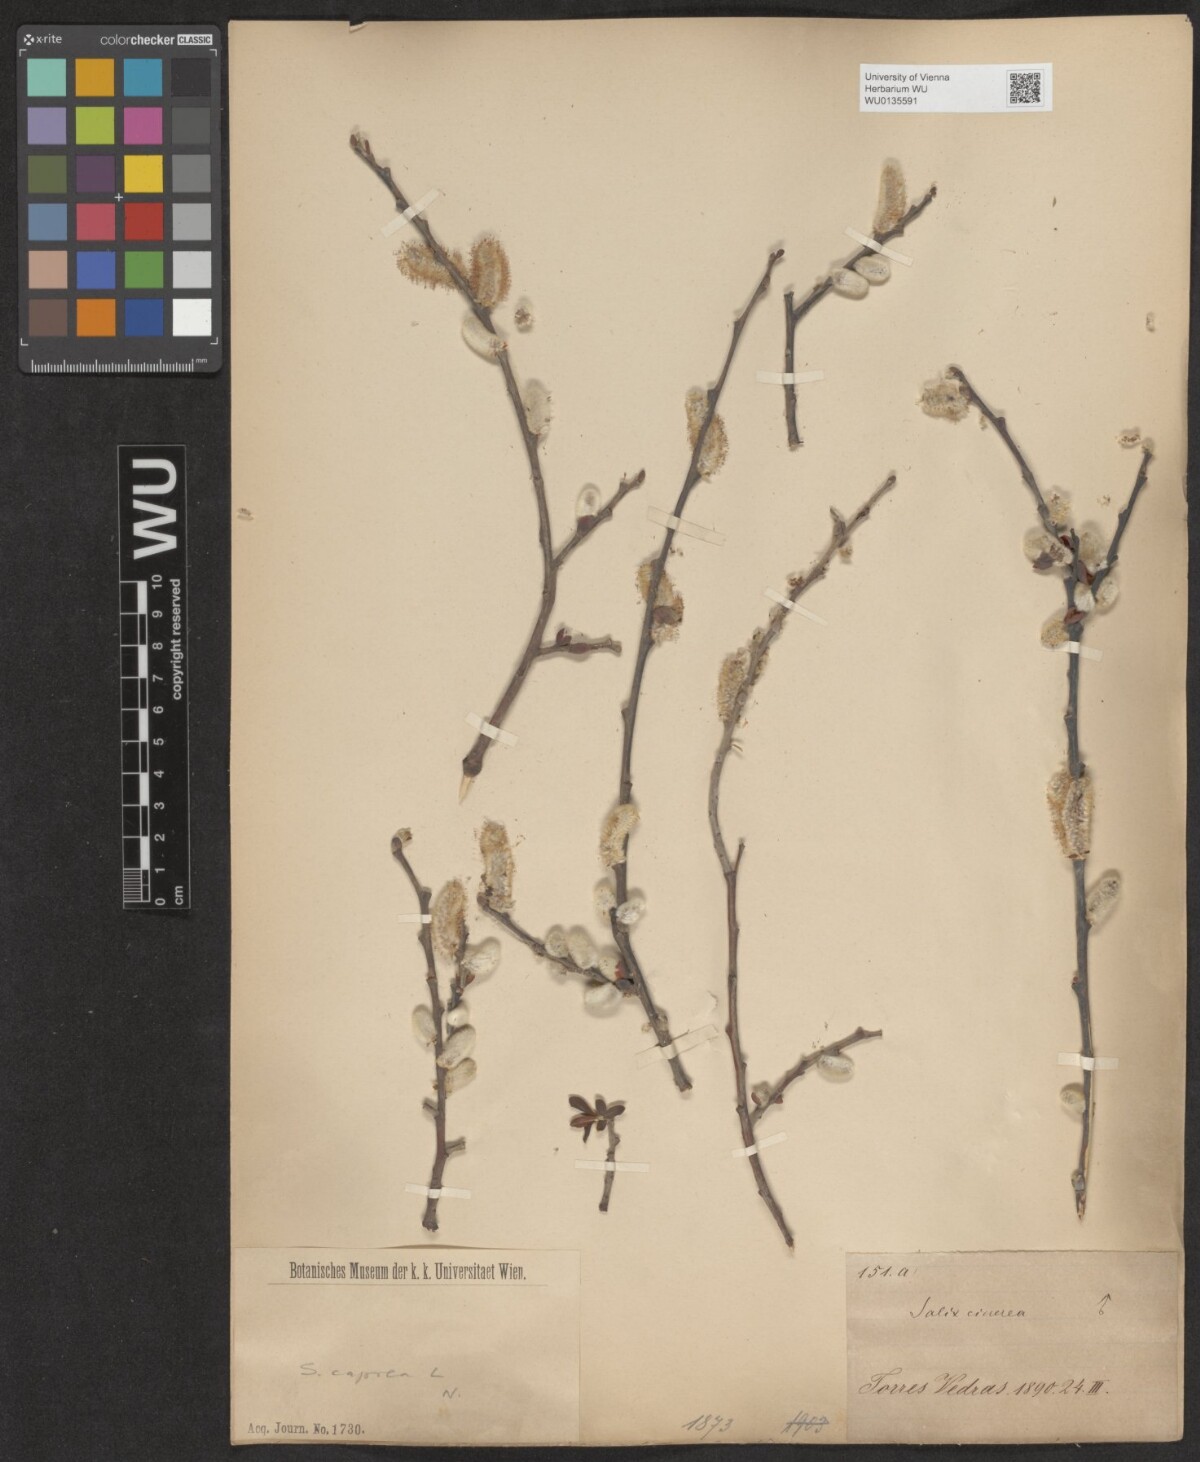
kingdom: Plantae
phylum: Tracheophyta
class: Magnoliopsida
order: Malpighiales
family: Salicaceae
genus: Salix
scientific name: Salix caprea
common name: Goat willow
